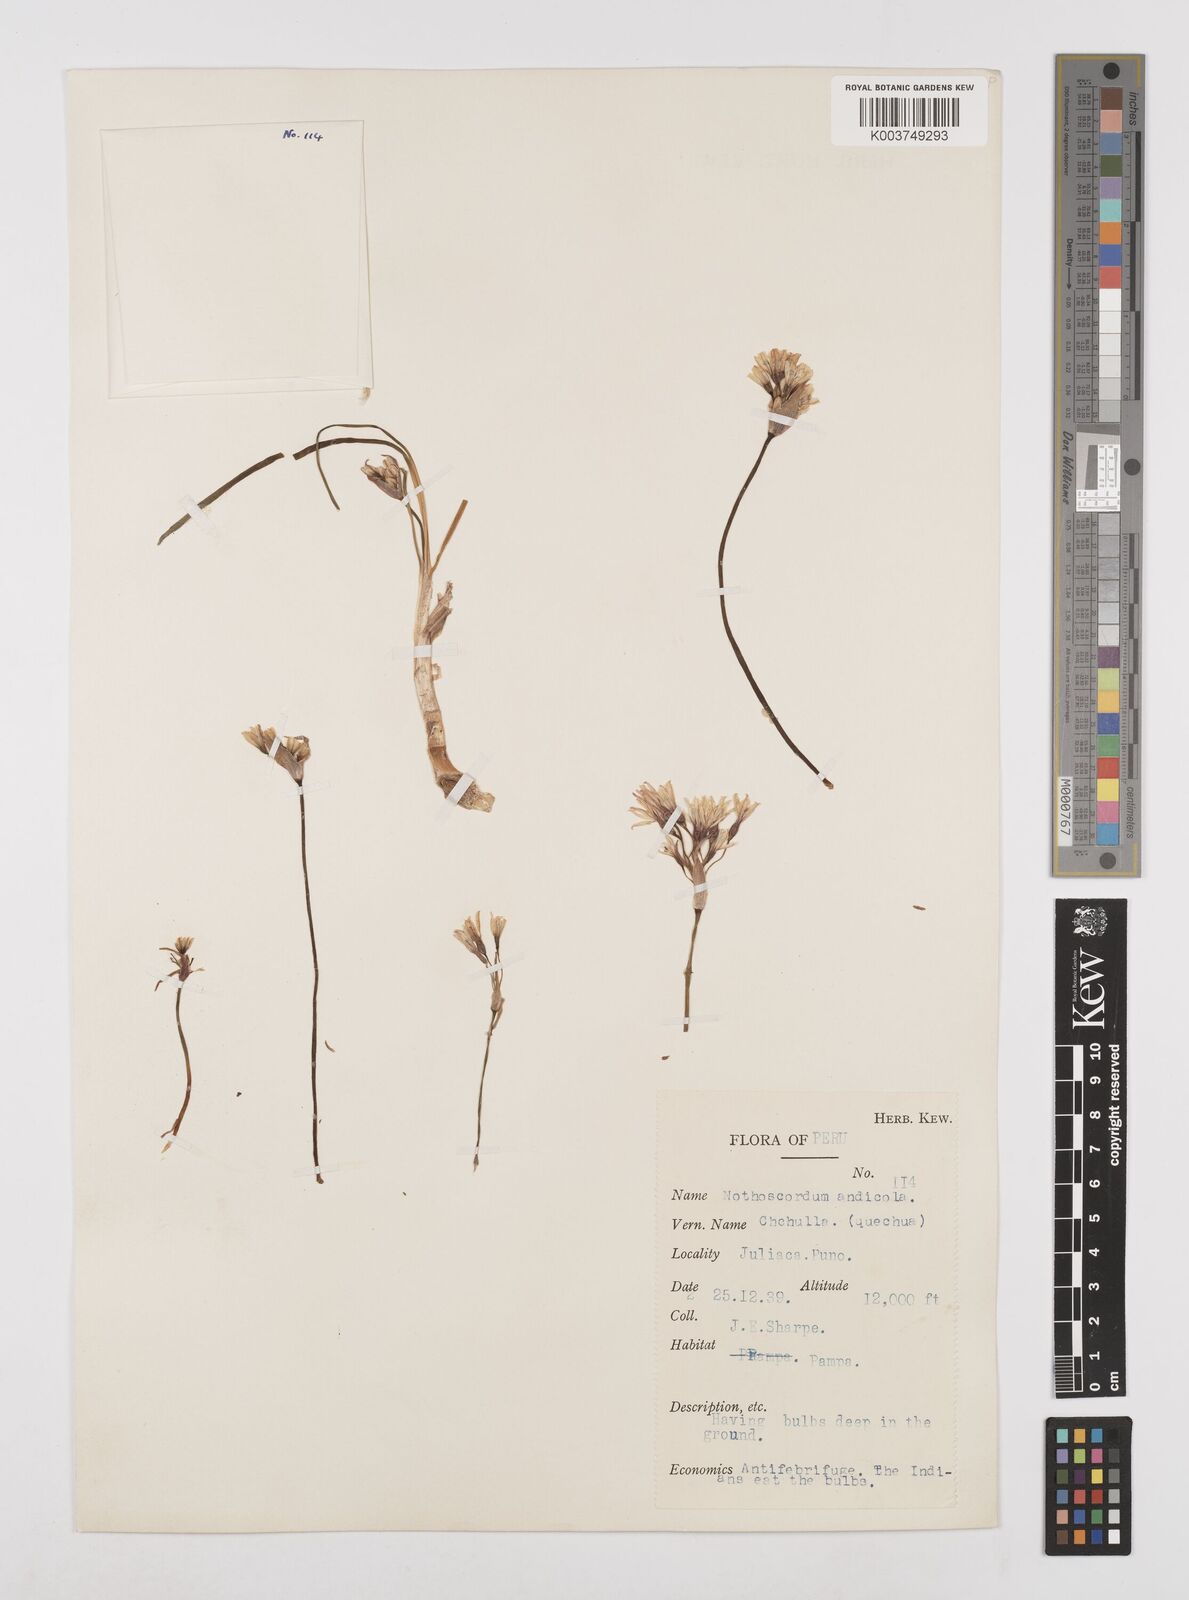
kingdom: Plantae
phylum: Tracheophyta
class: Liliopsida
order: Asparagales
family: Amaryllidaceae
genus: Nothoscordum
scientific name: Nothoscordum andicola
